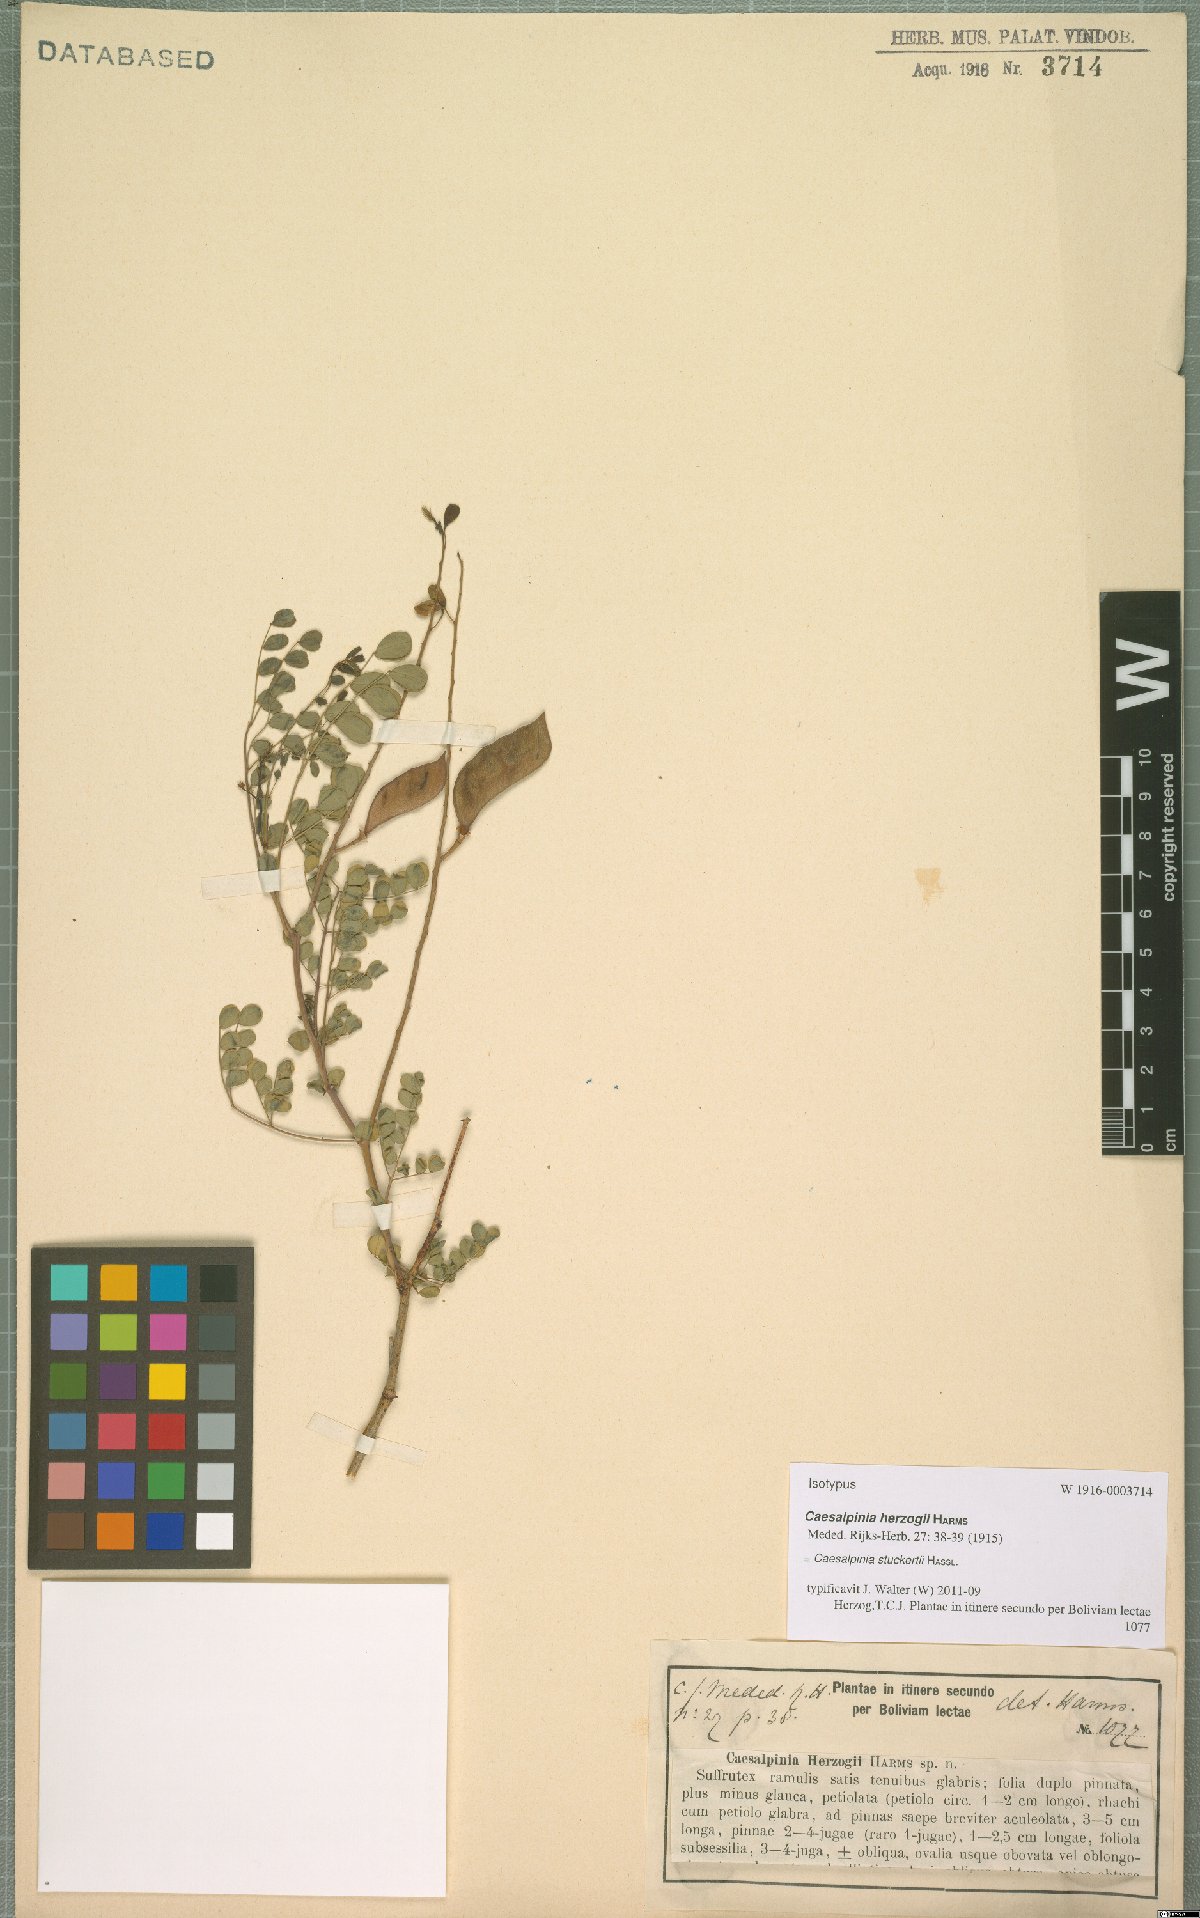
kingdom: Plantae
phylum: Tracheophyta
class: Magnoliopsida
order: Fabales
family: Fabaceae
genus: Denisophytum
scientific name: Denisophytum stuckertii
